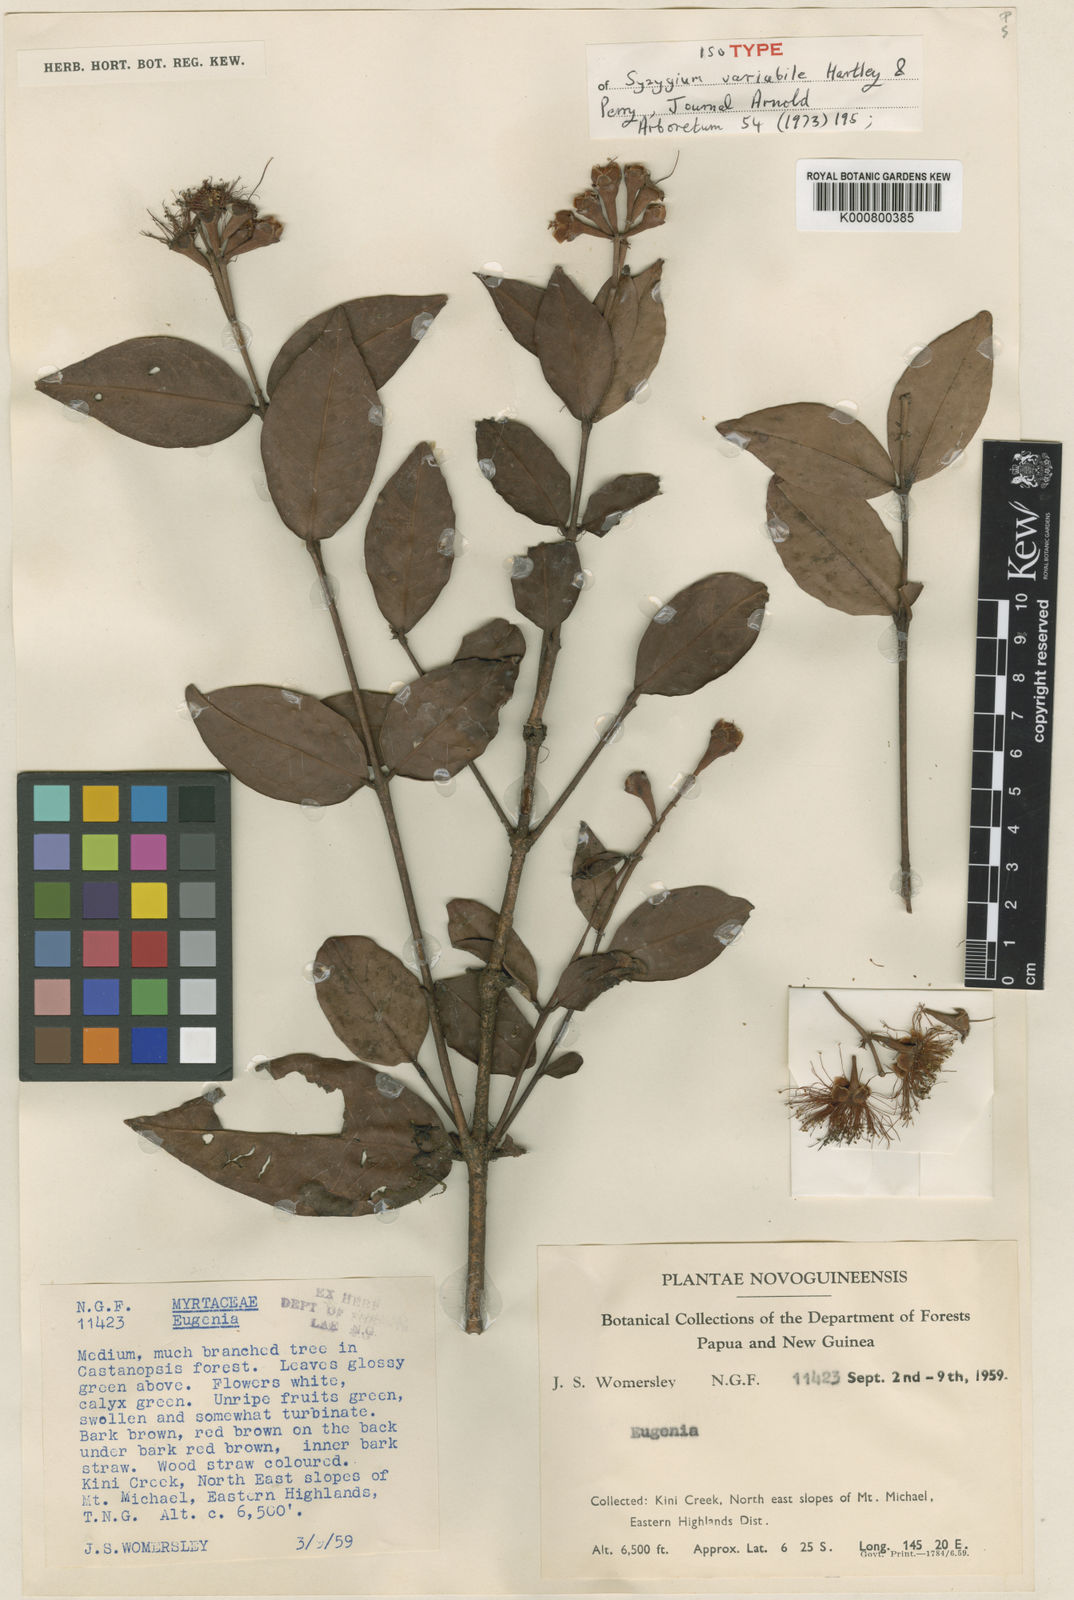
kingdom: Plantae
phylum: Tracheophyta
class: Magnoliopsida
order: Myrtales
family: Myrtaceae
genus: Syzygium
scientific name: Syzygium variabile
